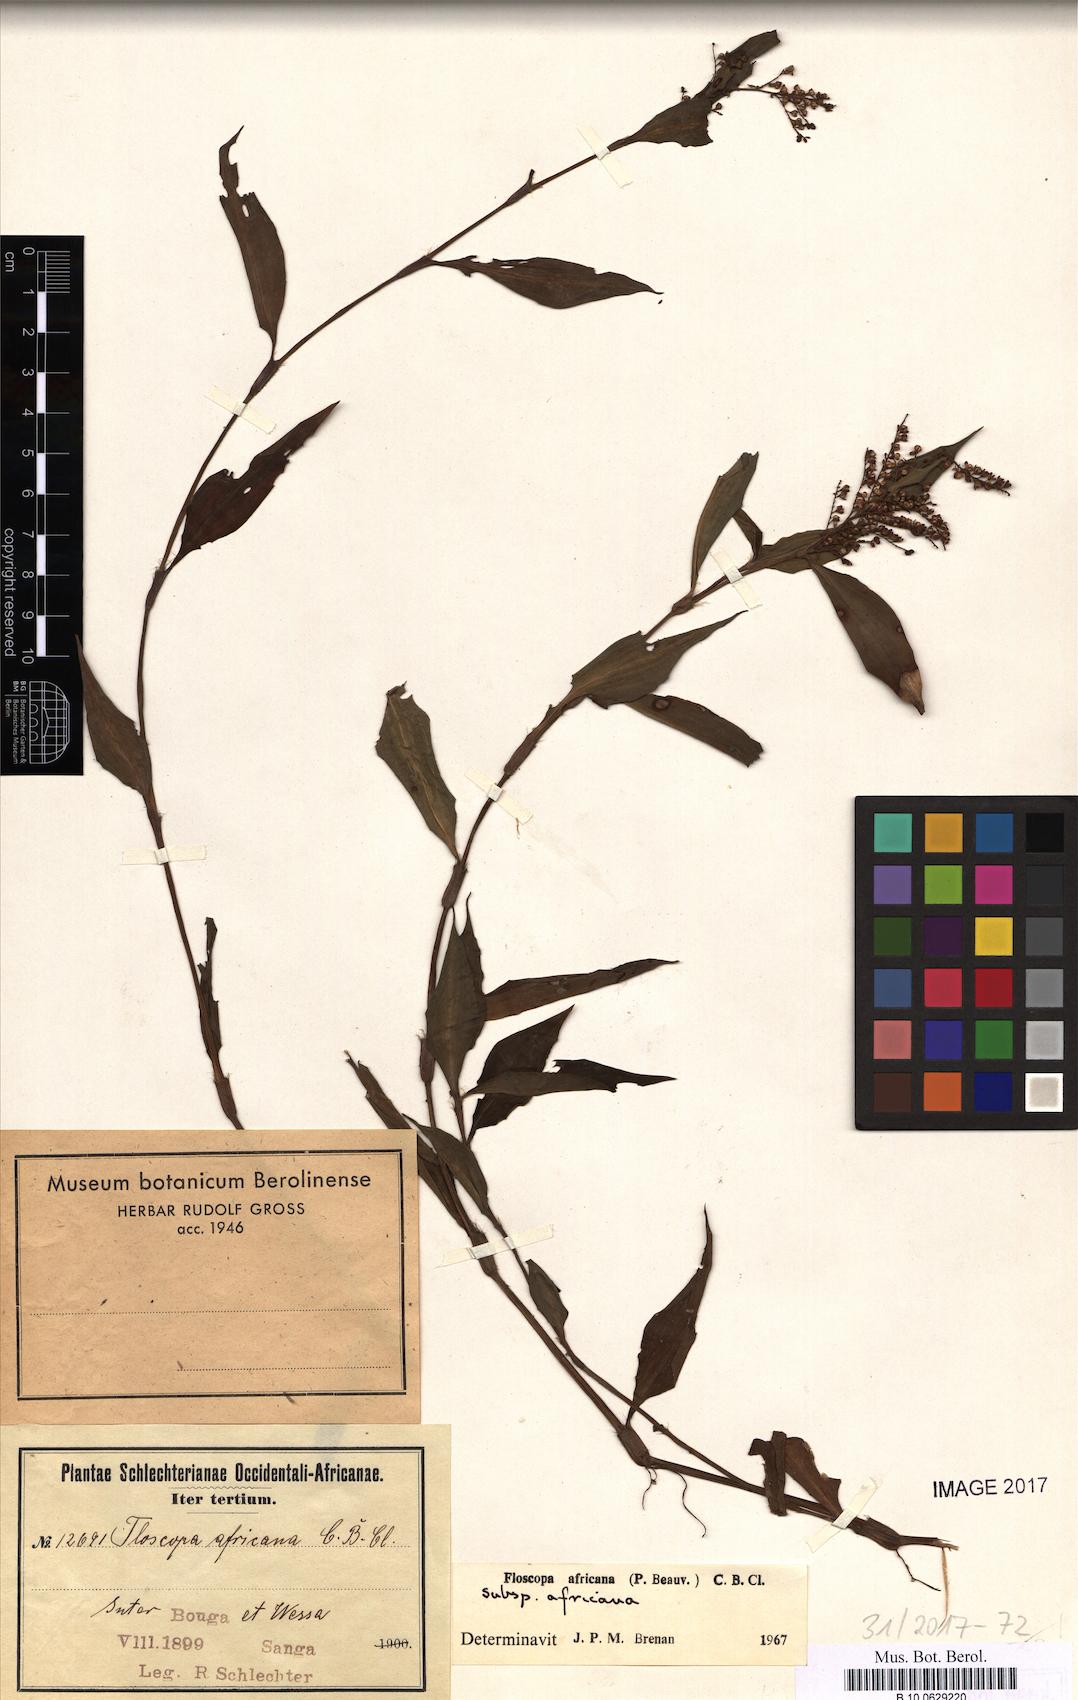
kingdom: Plantae
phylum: Tracheophyta
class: Liliopsida
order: Commelinales
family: Commelinaceae
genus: Floscopa
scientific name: Floscopa africana
